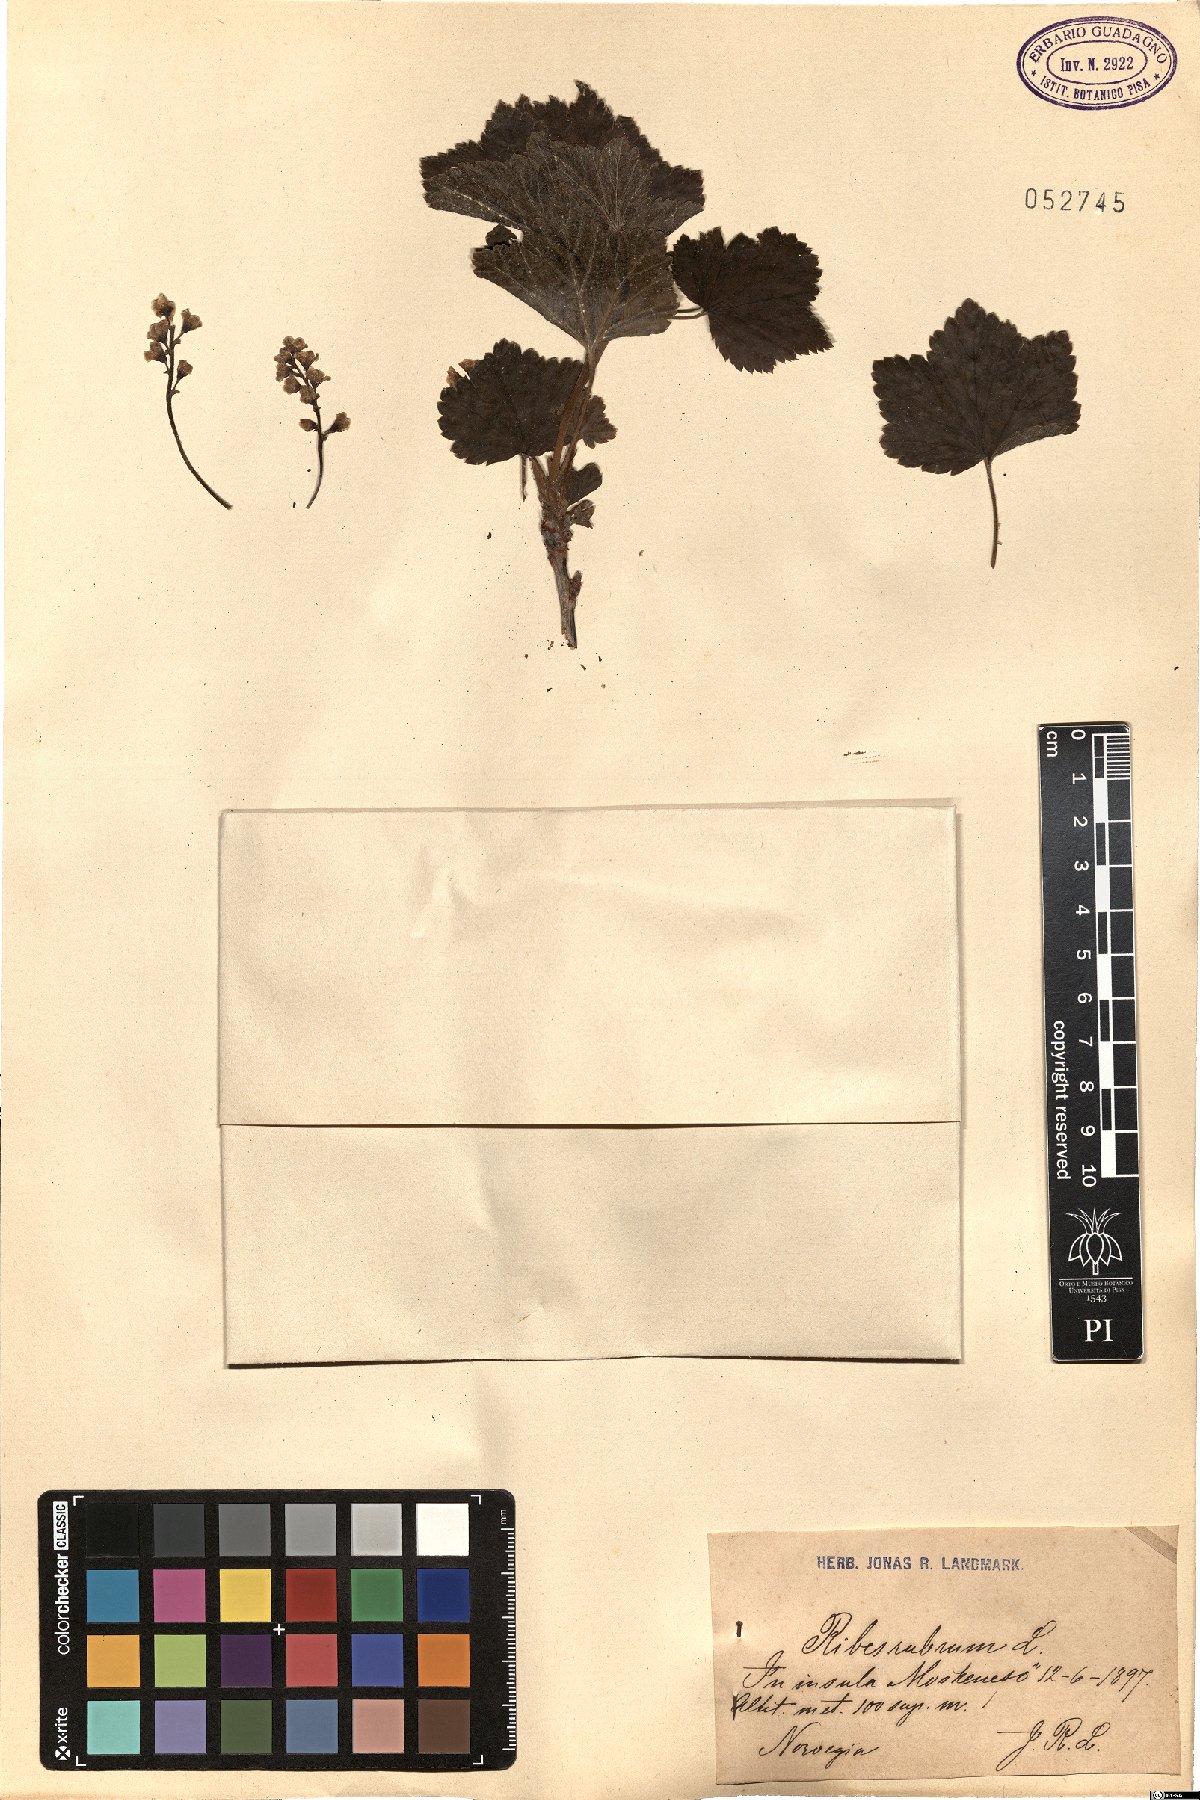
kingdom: Plantae
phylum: Tracheophyta
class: Magnoliopsida
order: Saxifragales
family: Grossulariaceae
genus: Ribes
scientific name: Ribes rubrum
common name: Red currant
